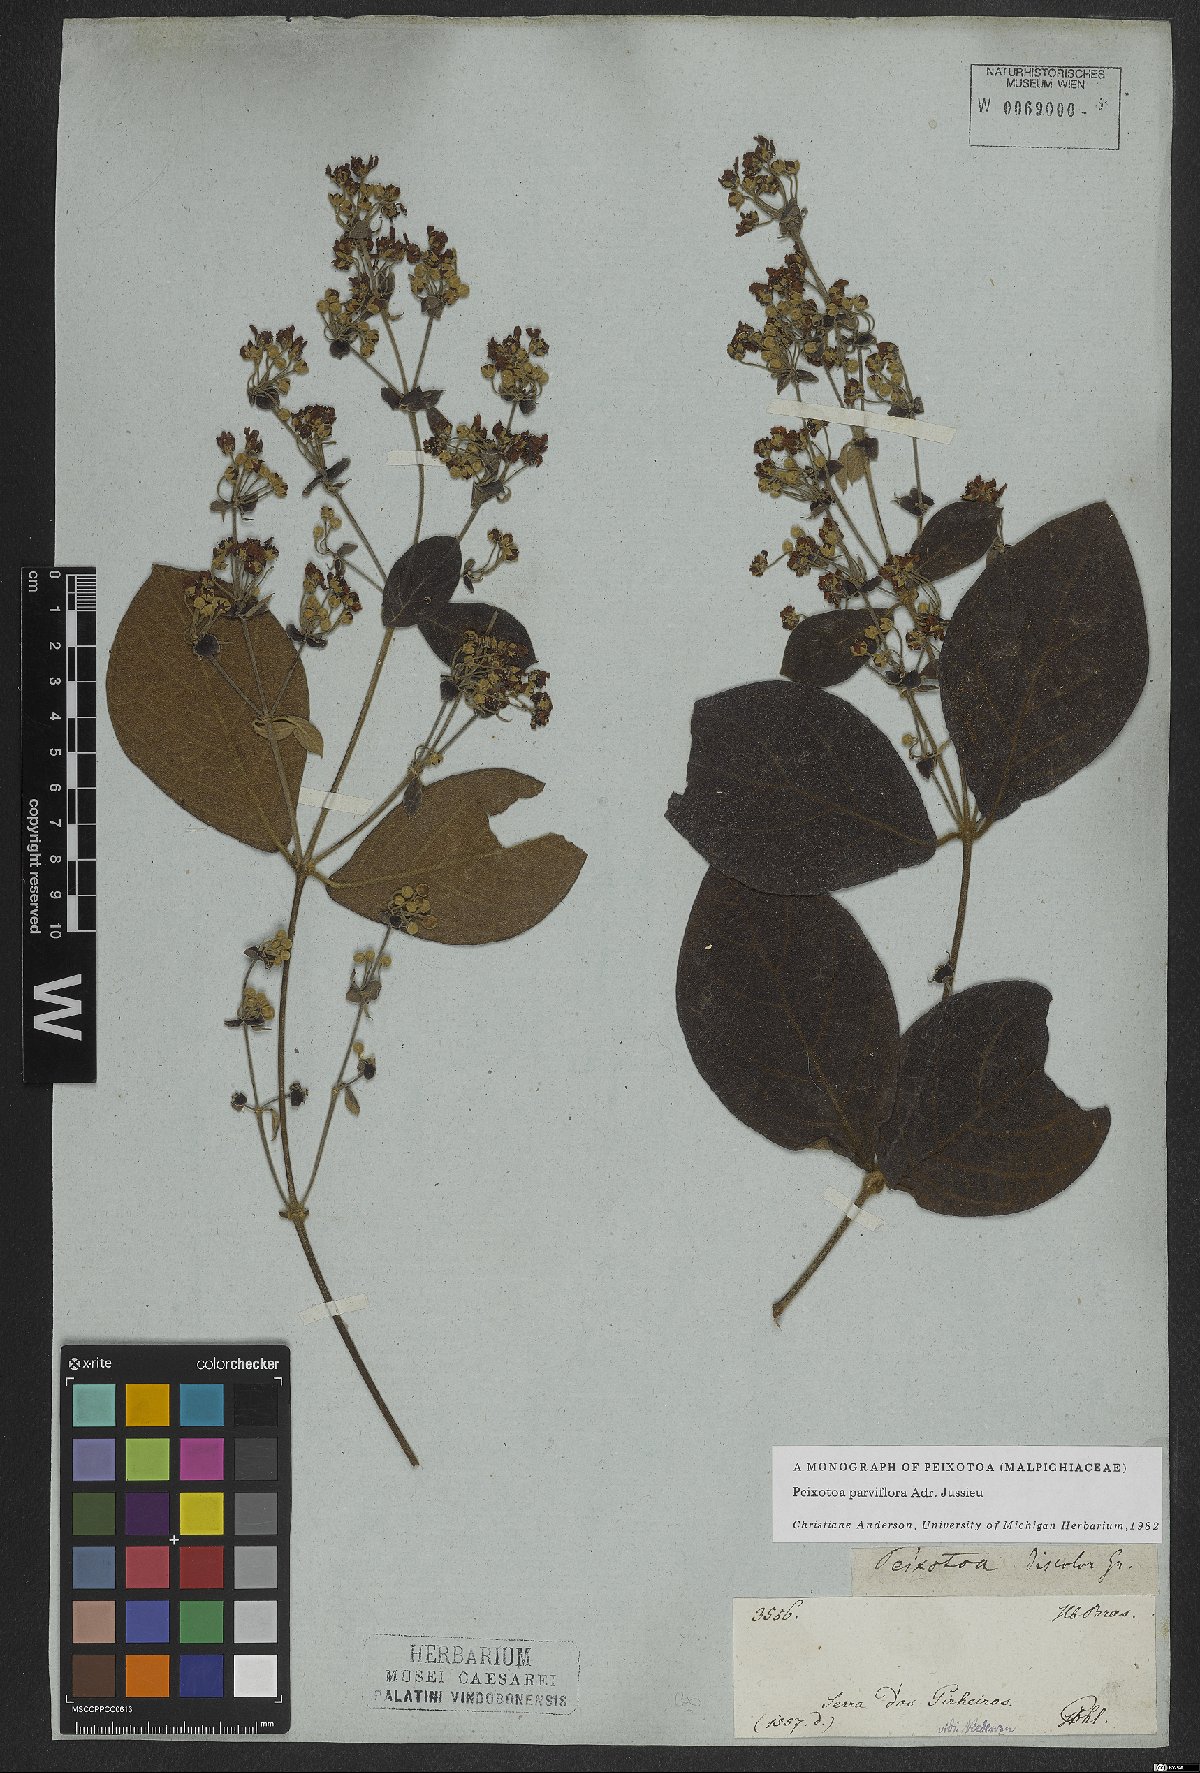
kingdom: Plantae
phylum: Tracheophyta
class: Magnoliopsida
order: Malpighiales
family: Malpighiaceae
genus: Peixotoa
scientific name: Peixotoa parviflora
